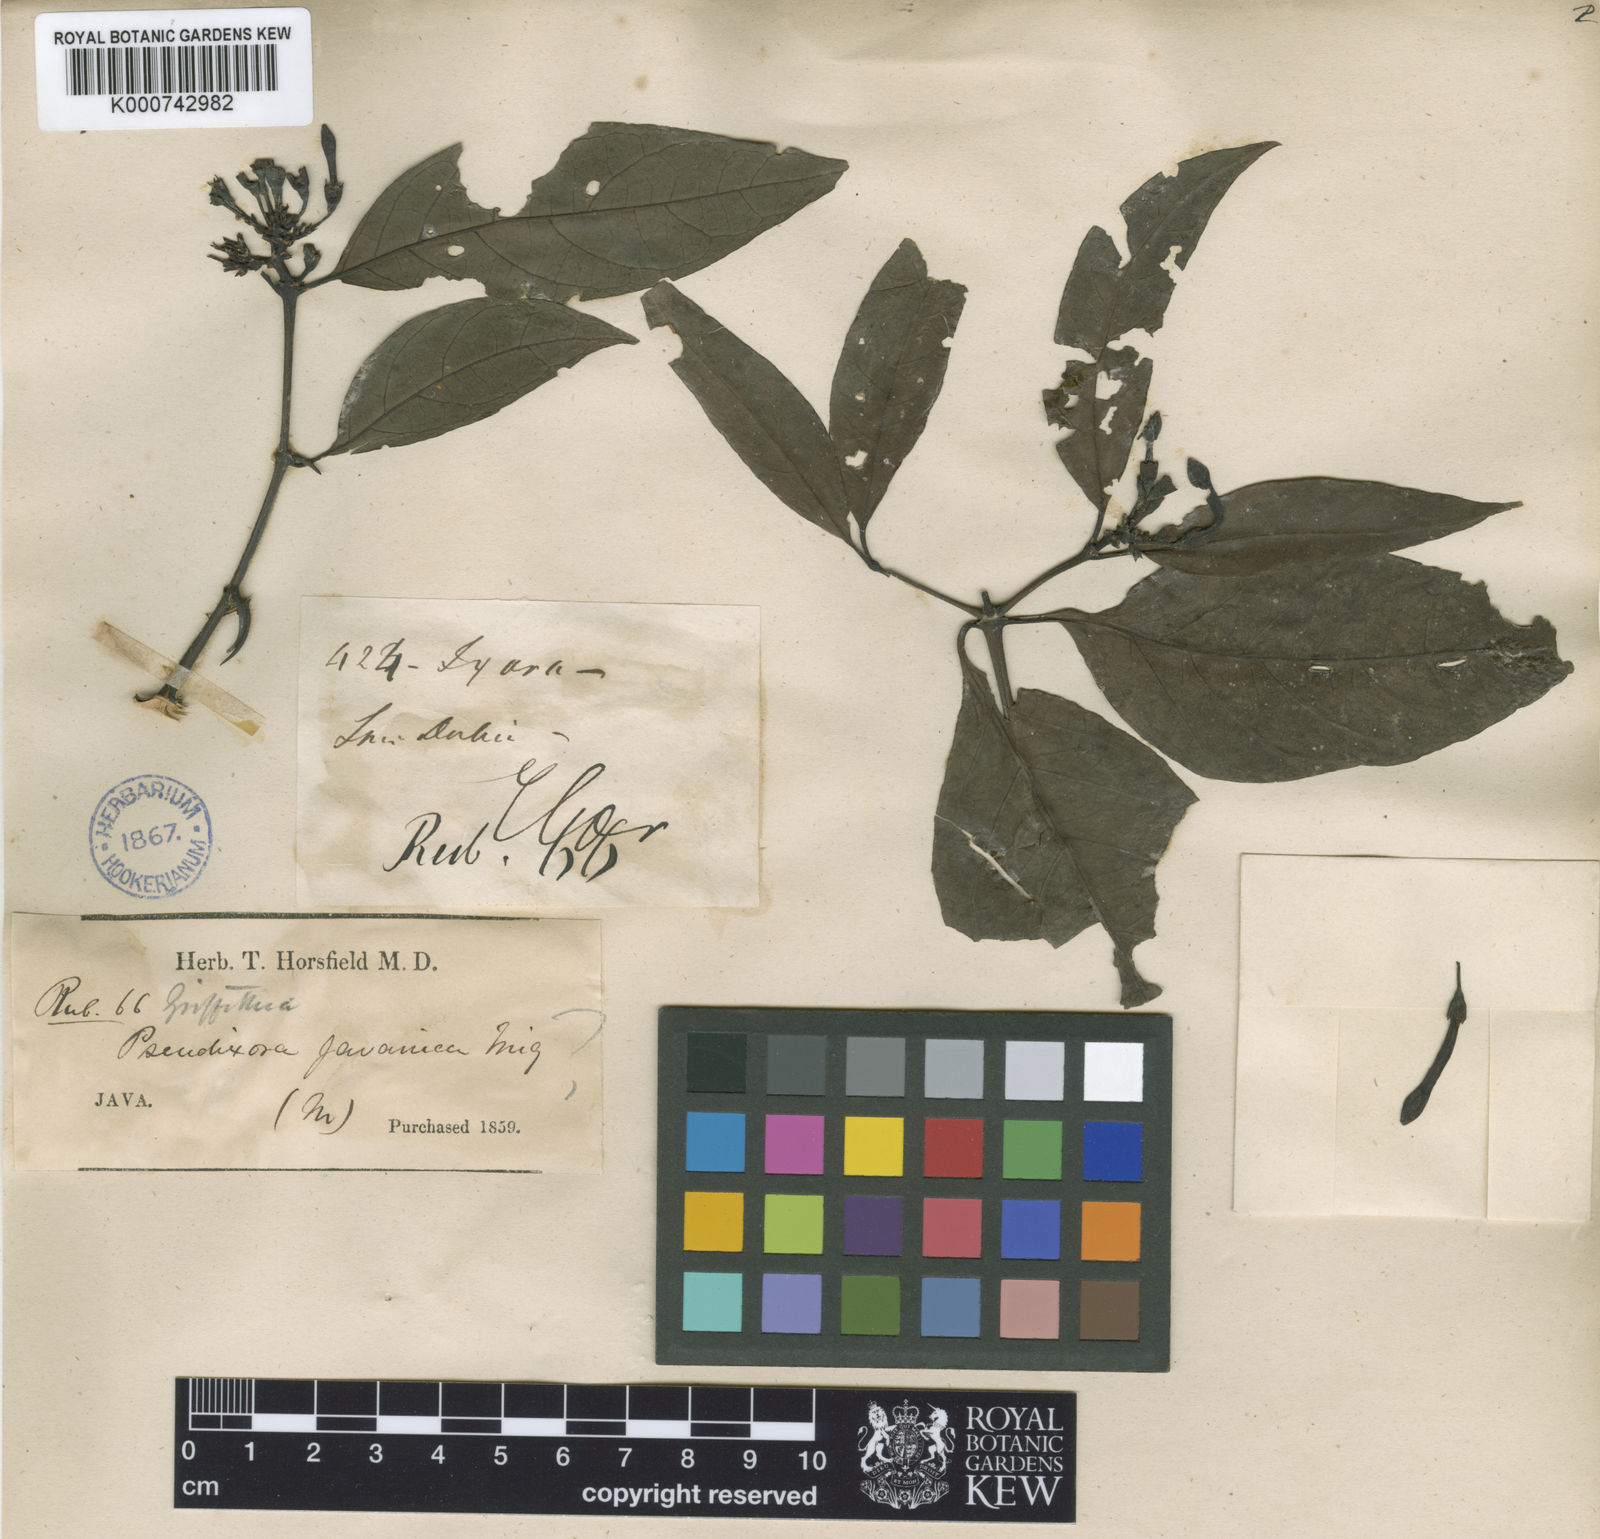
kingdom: Plantae
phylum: Tracheophyta
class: Magnoliopsida
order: Gentianales
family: Rubiaceae
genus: Oxyceros
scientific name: Oxyceros patulus
